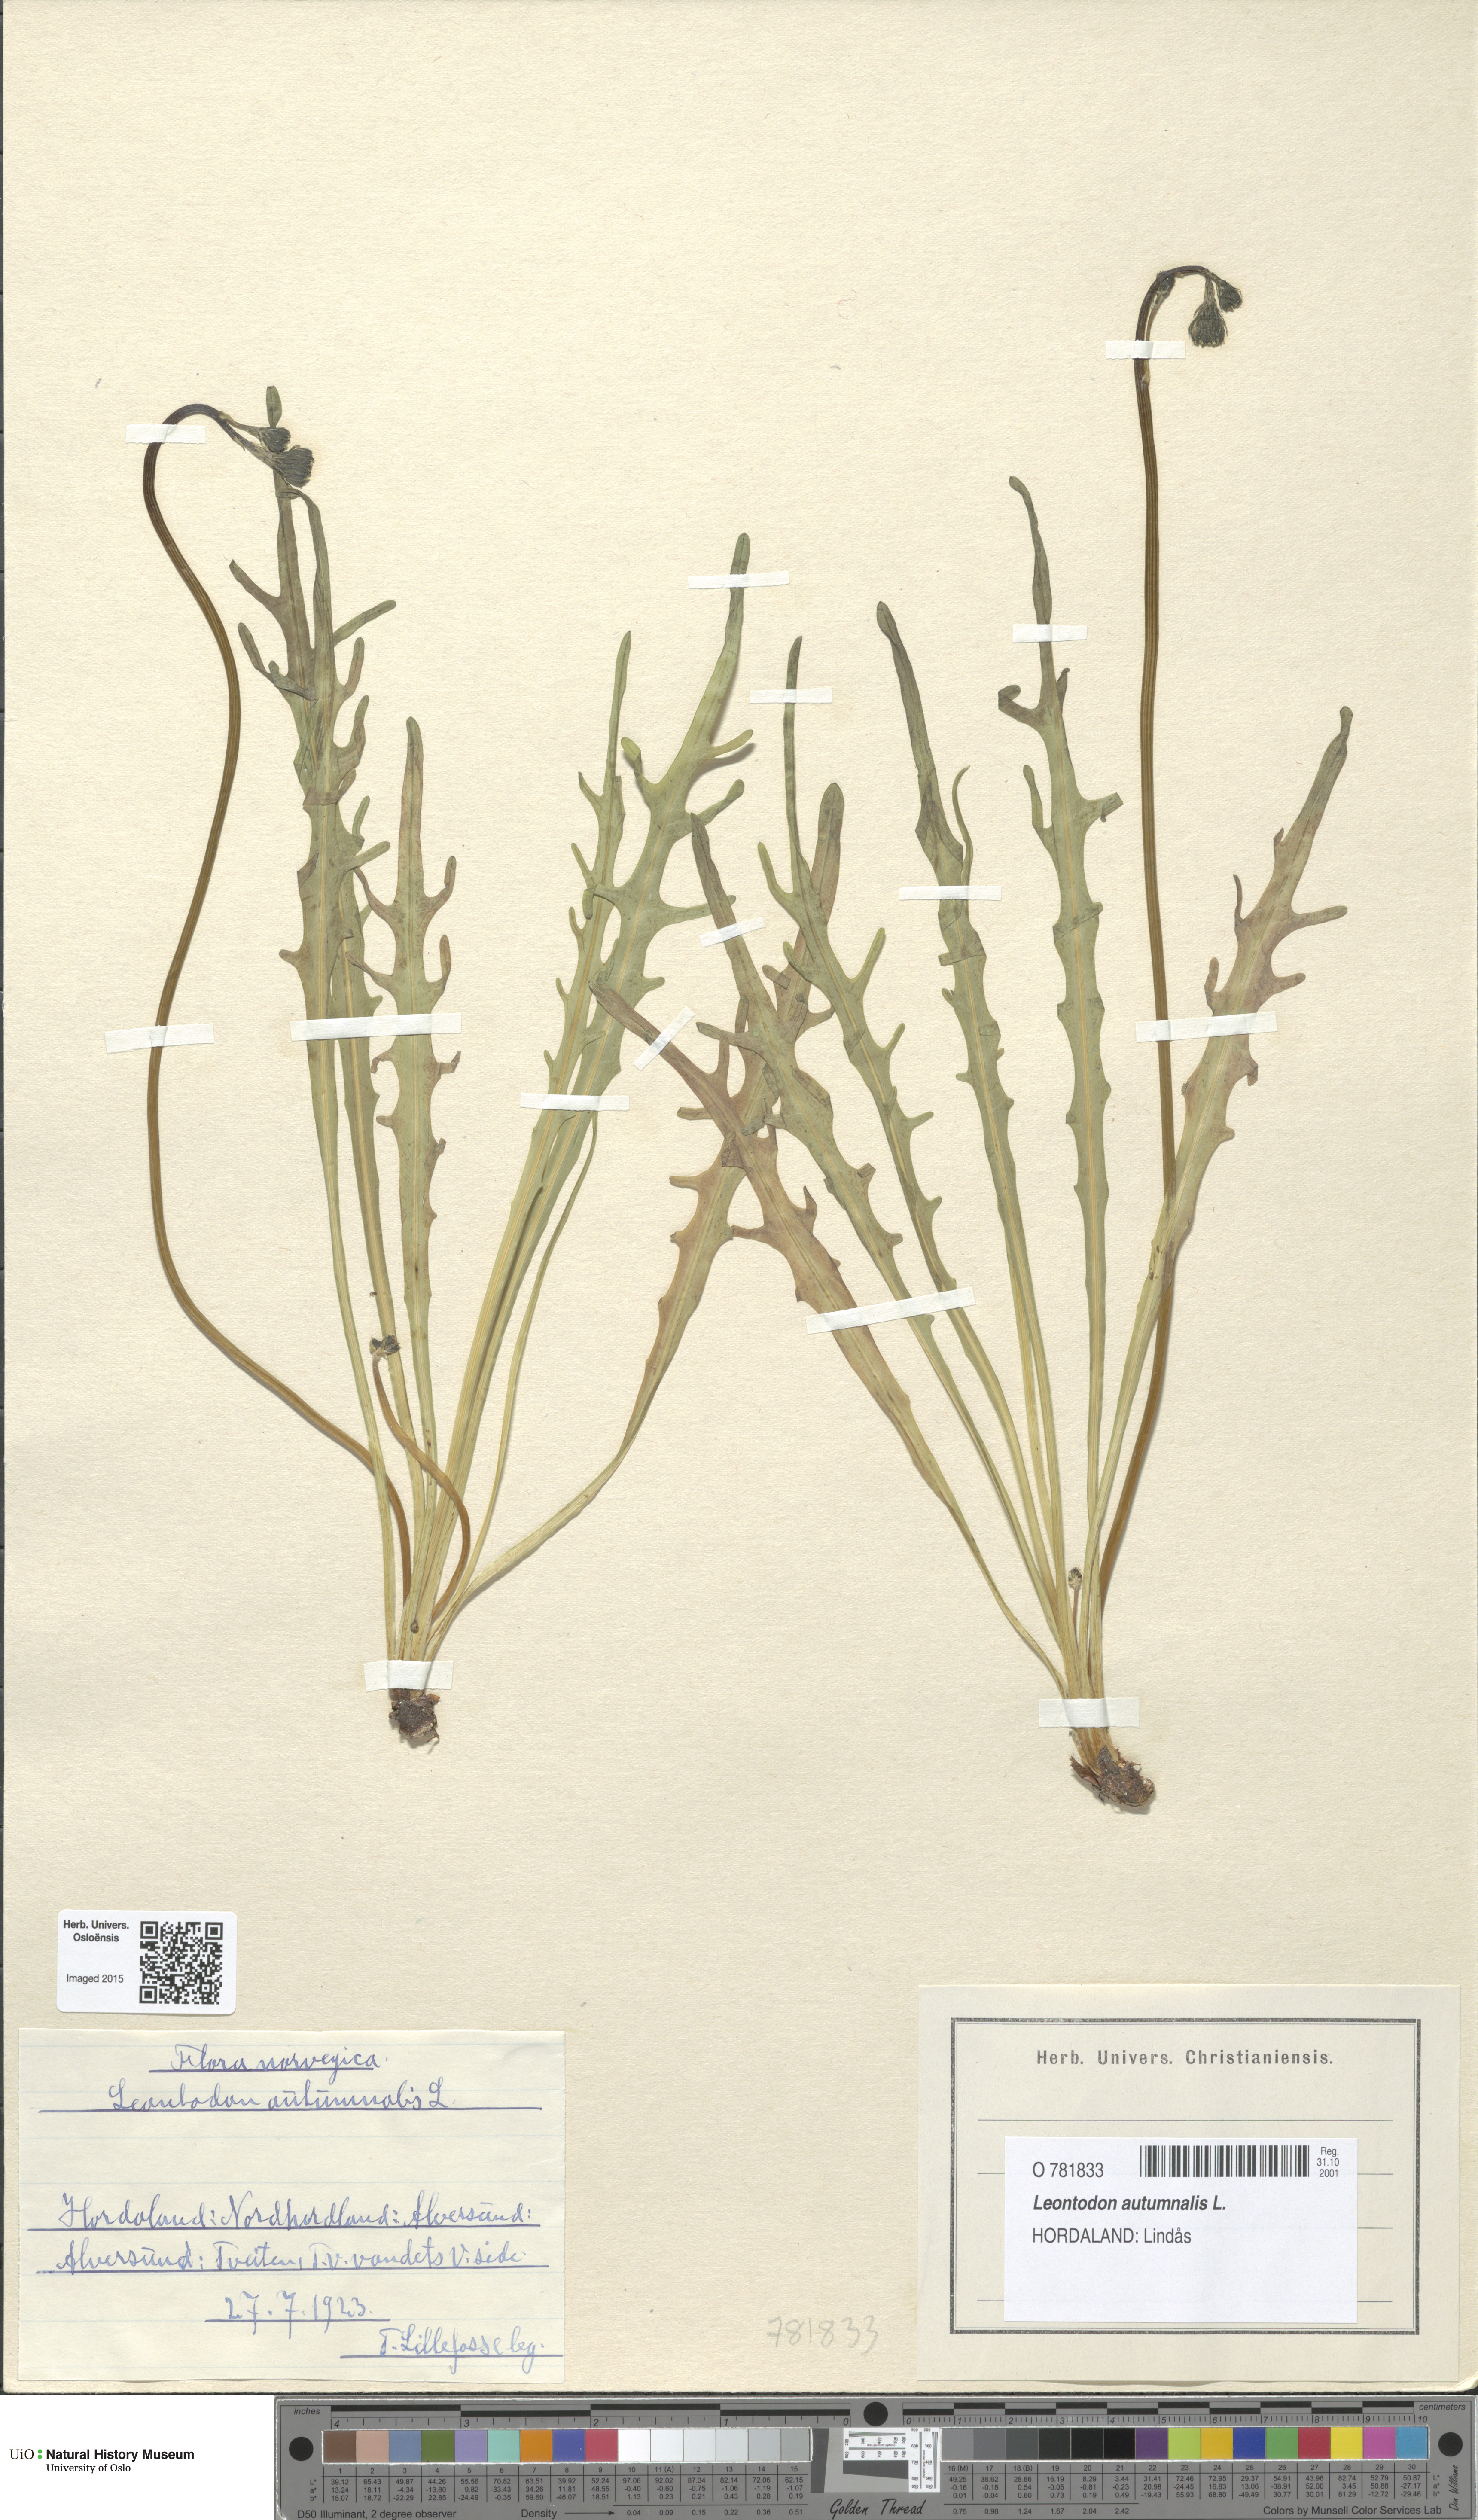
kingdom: Plantae
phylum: Tracheophyta
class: Magnoliopsida
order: Asterales
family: Asteraceae
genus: Scorzoneroides
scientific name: Scorzoneroides autumnalis
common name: Autumn hawkbit
